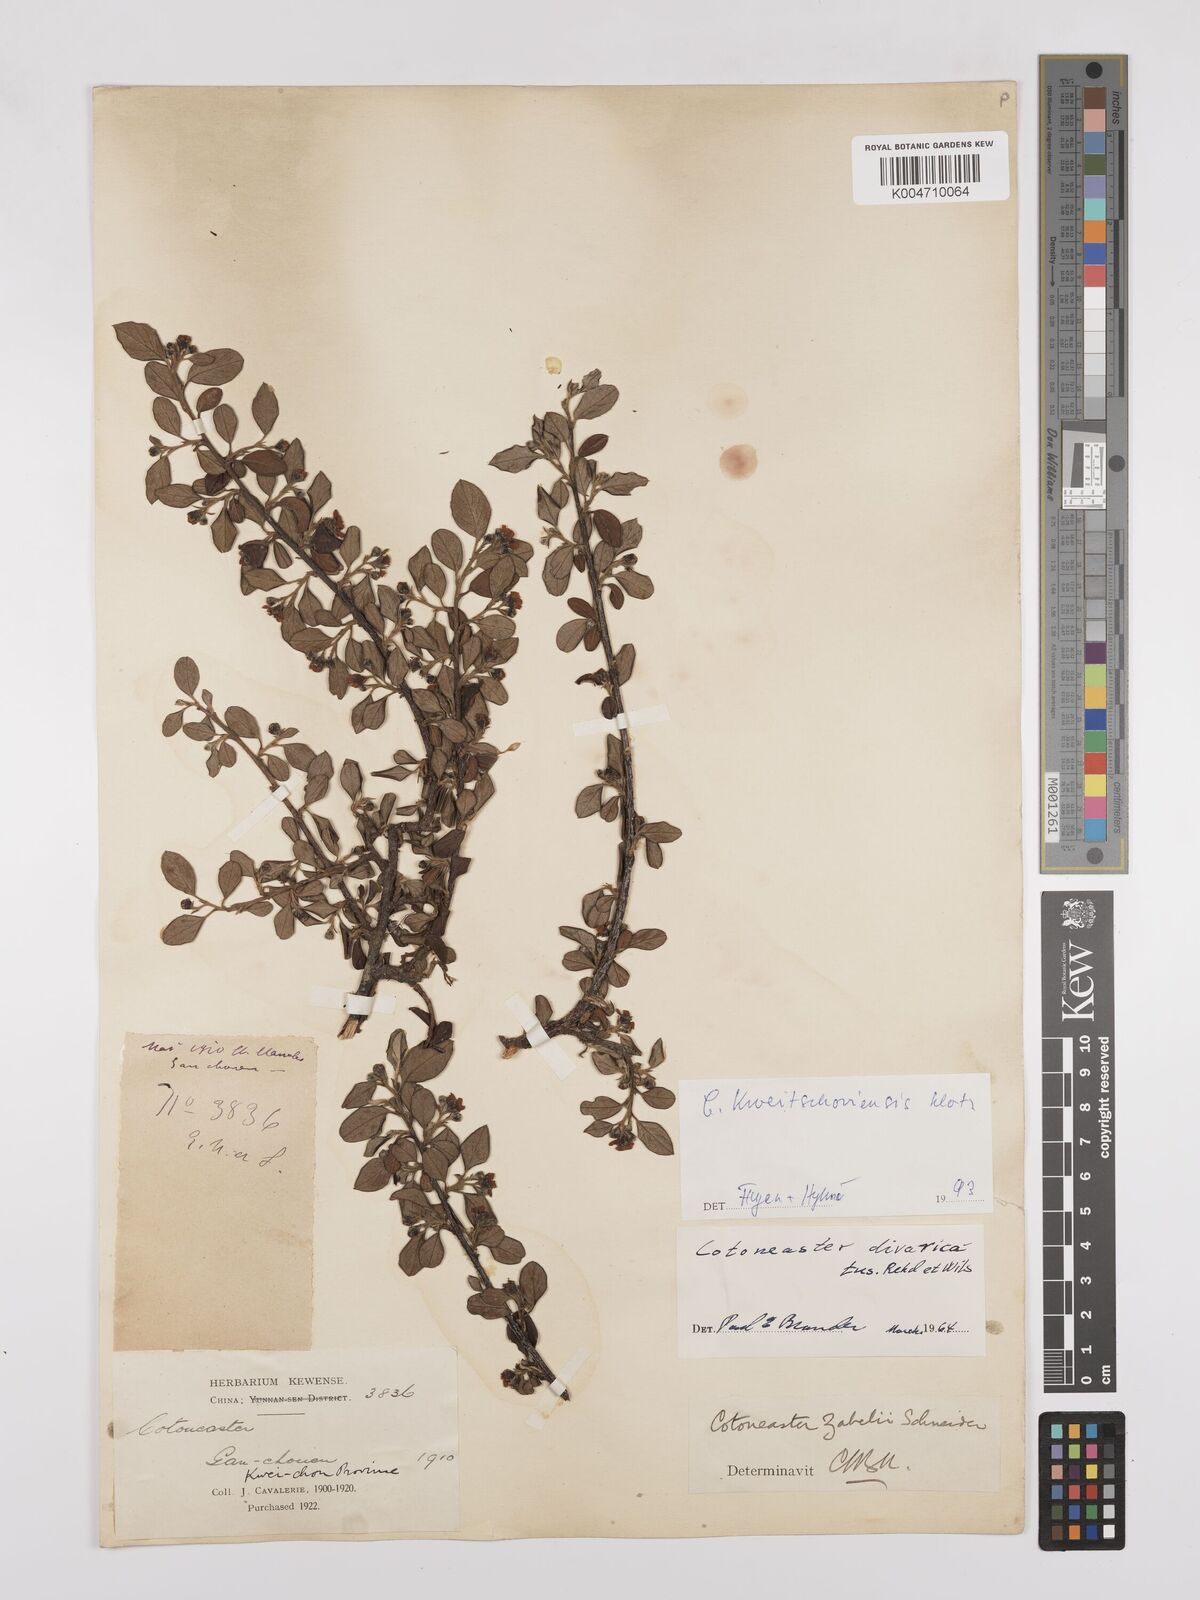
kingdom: Plantae
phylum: Tracheophyta
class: Magnoliopsida
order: Rosales
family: Rosaceae
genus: Cotoneaster
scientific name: Cotoneaster zabelii
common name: Cherryred cotoneaster
